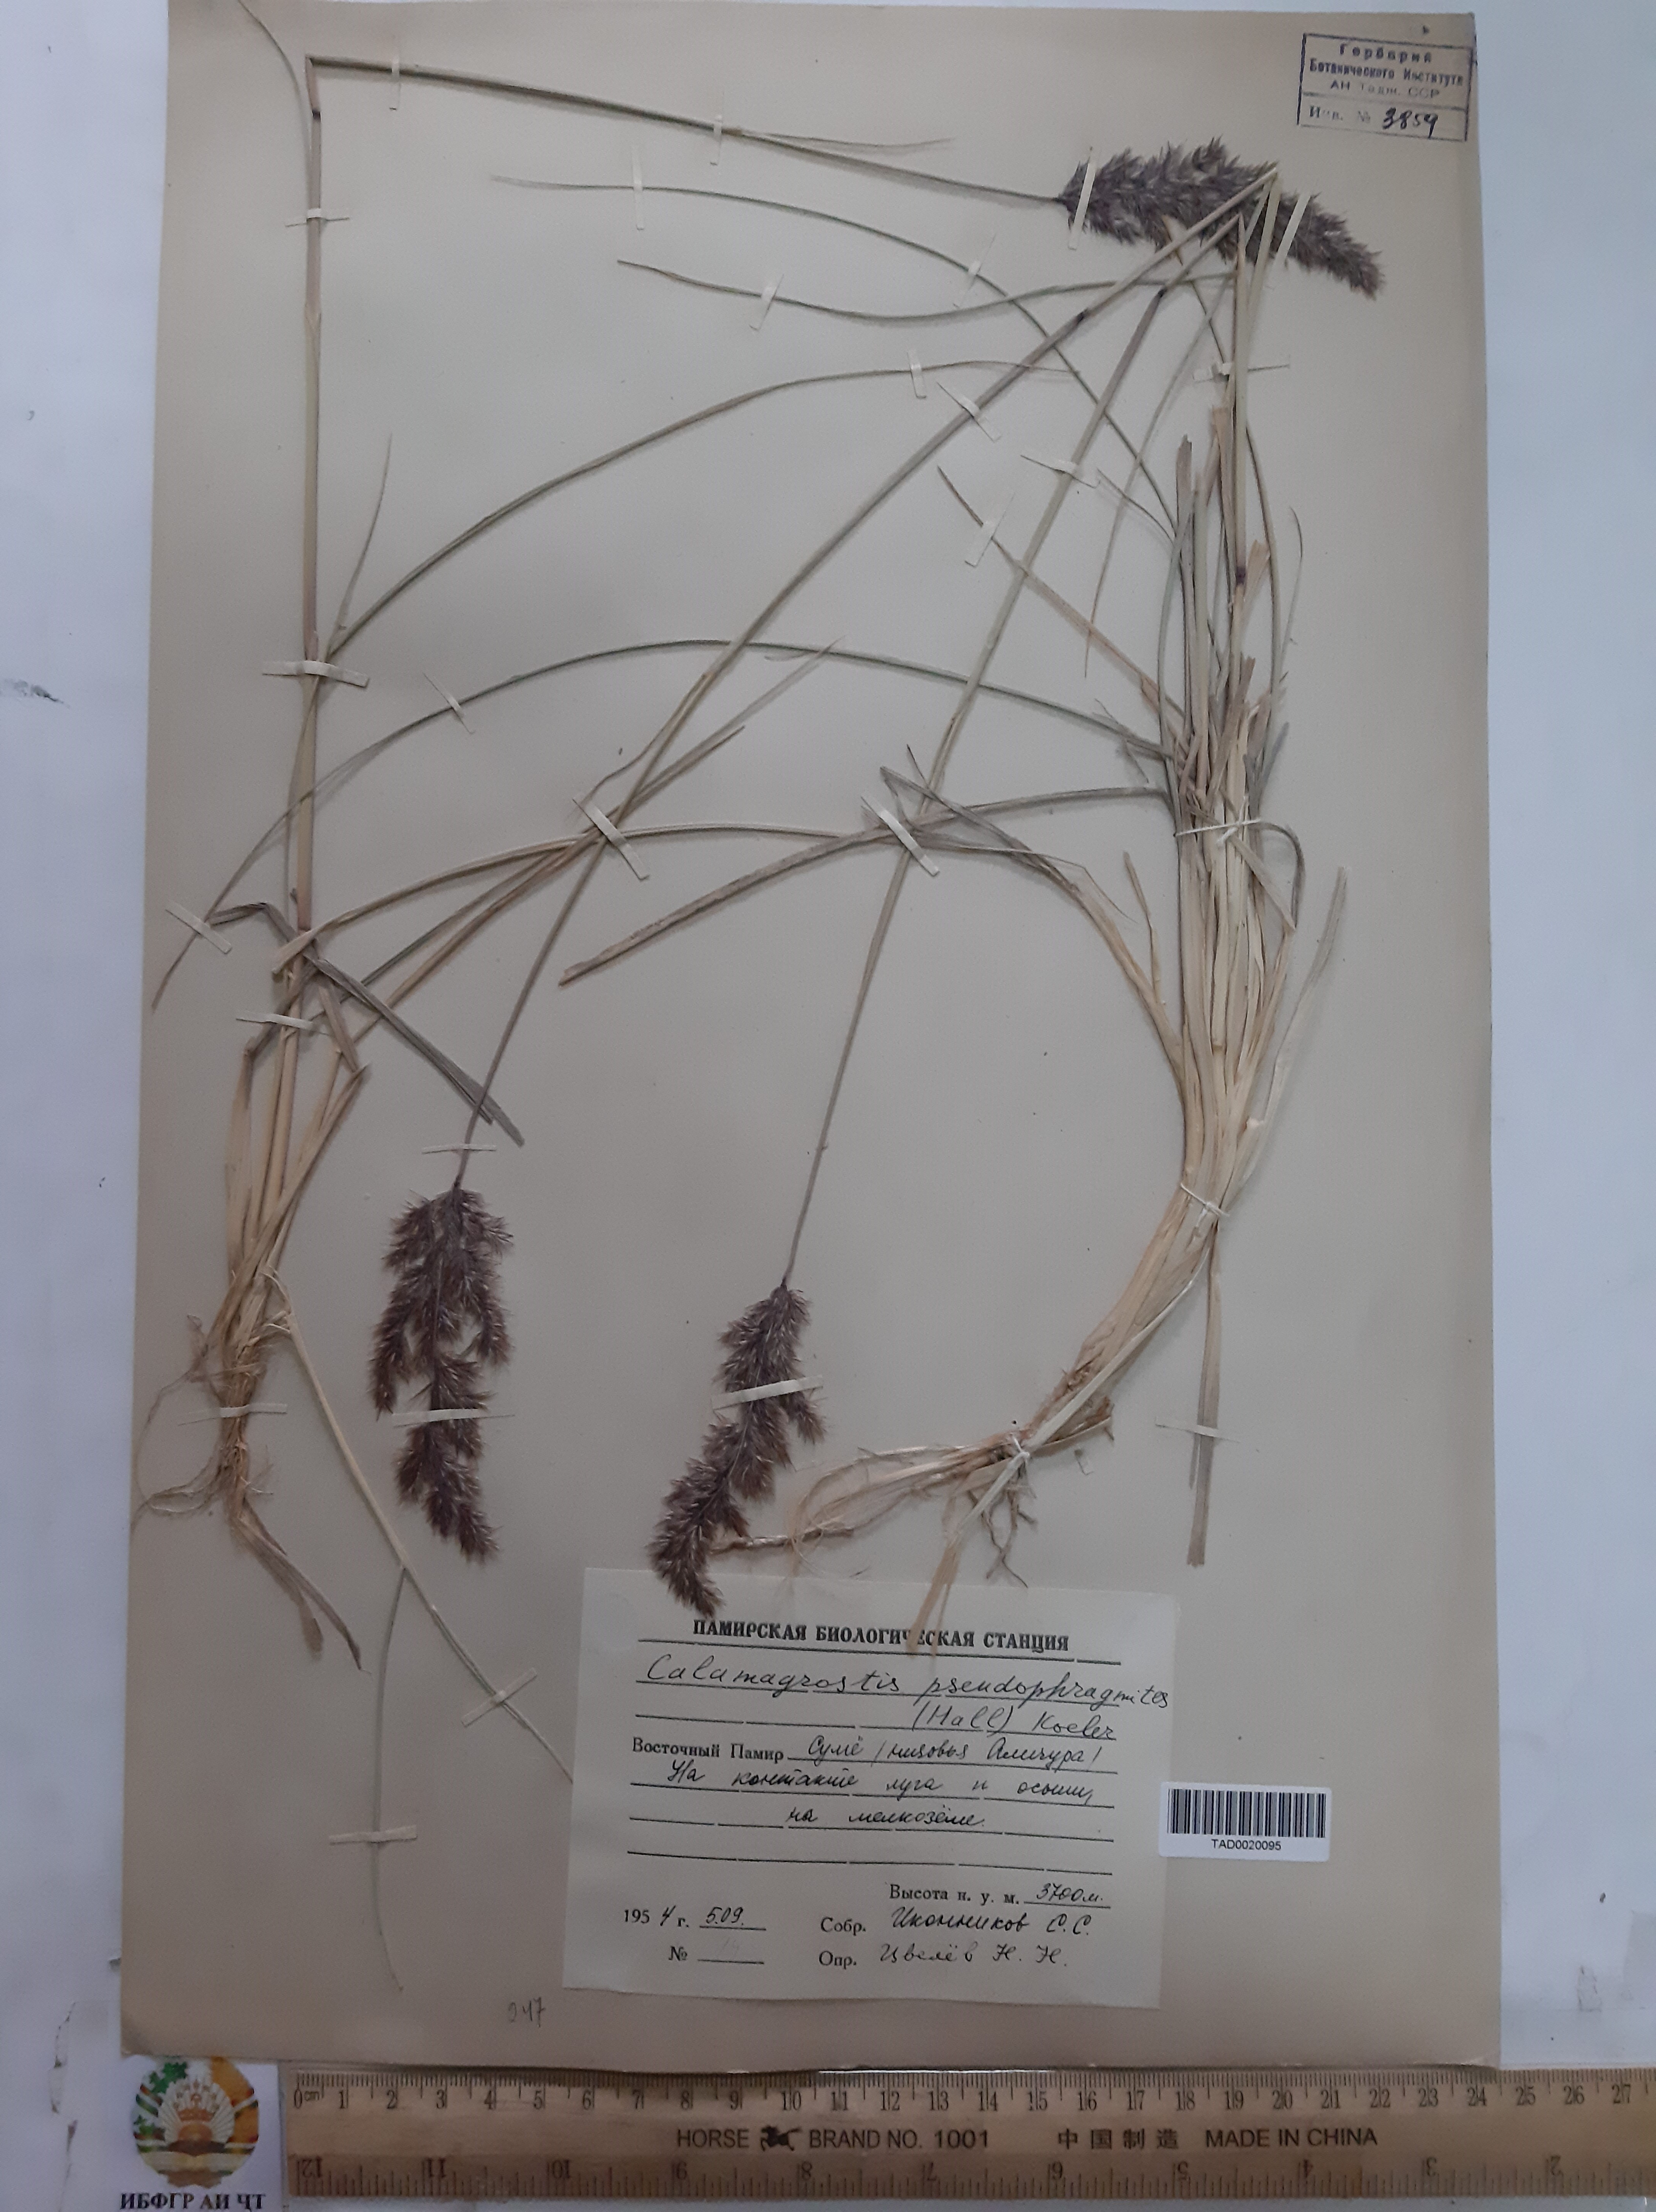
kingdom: Plantae
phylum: Tracheophyta
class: Liliopsida
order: Poales
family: Poaceae
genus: Calamagrostis
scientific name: Calamagrostis pseudophragmites
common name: Coastal small-reed
